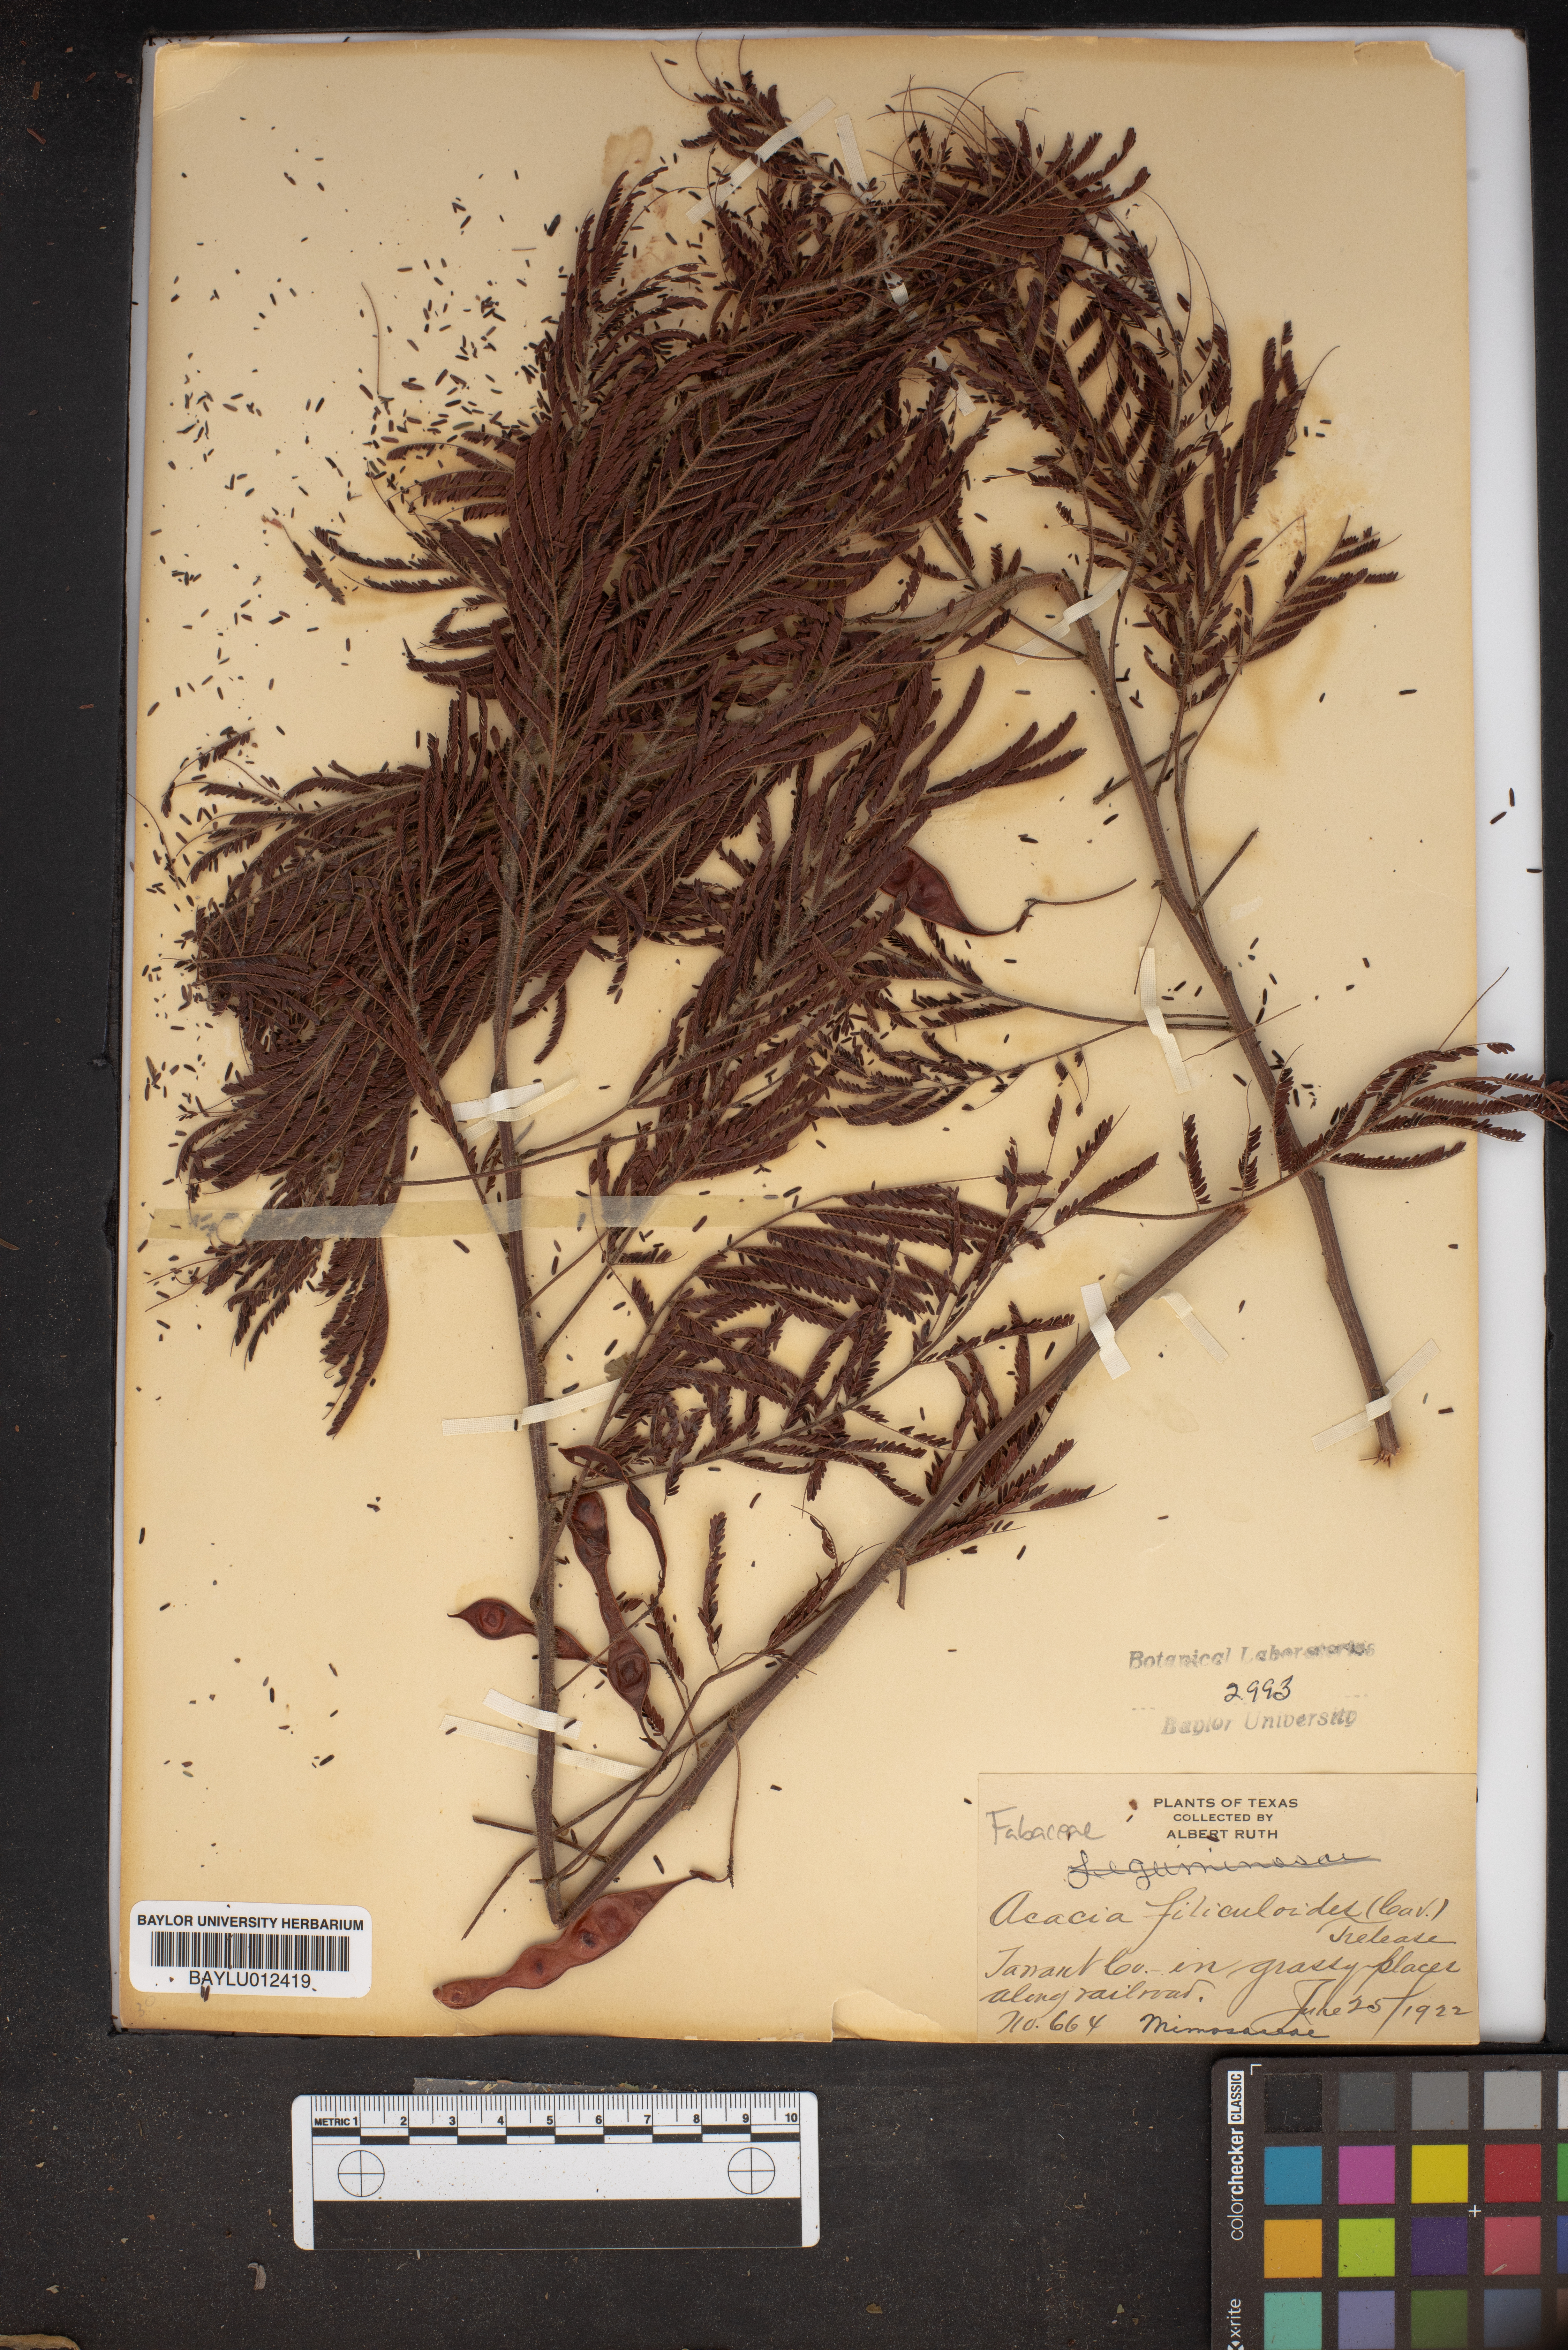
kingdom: Plantae
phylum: Tracheophyta
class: Magnoliopsida
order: Fabales
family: Fabaceae
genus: Acaciella
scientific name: Acaciella angustissima
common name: Prairie acacia
